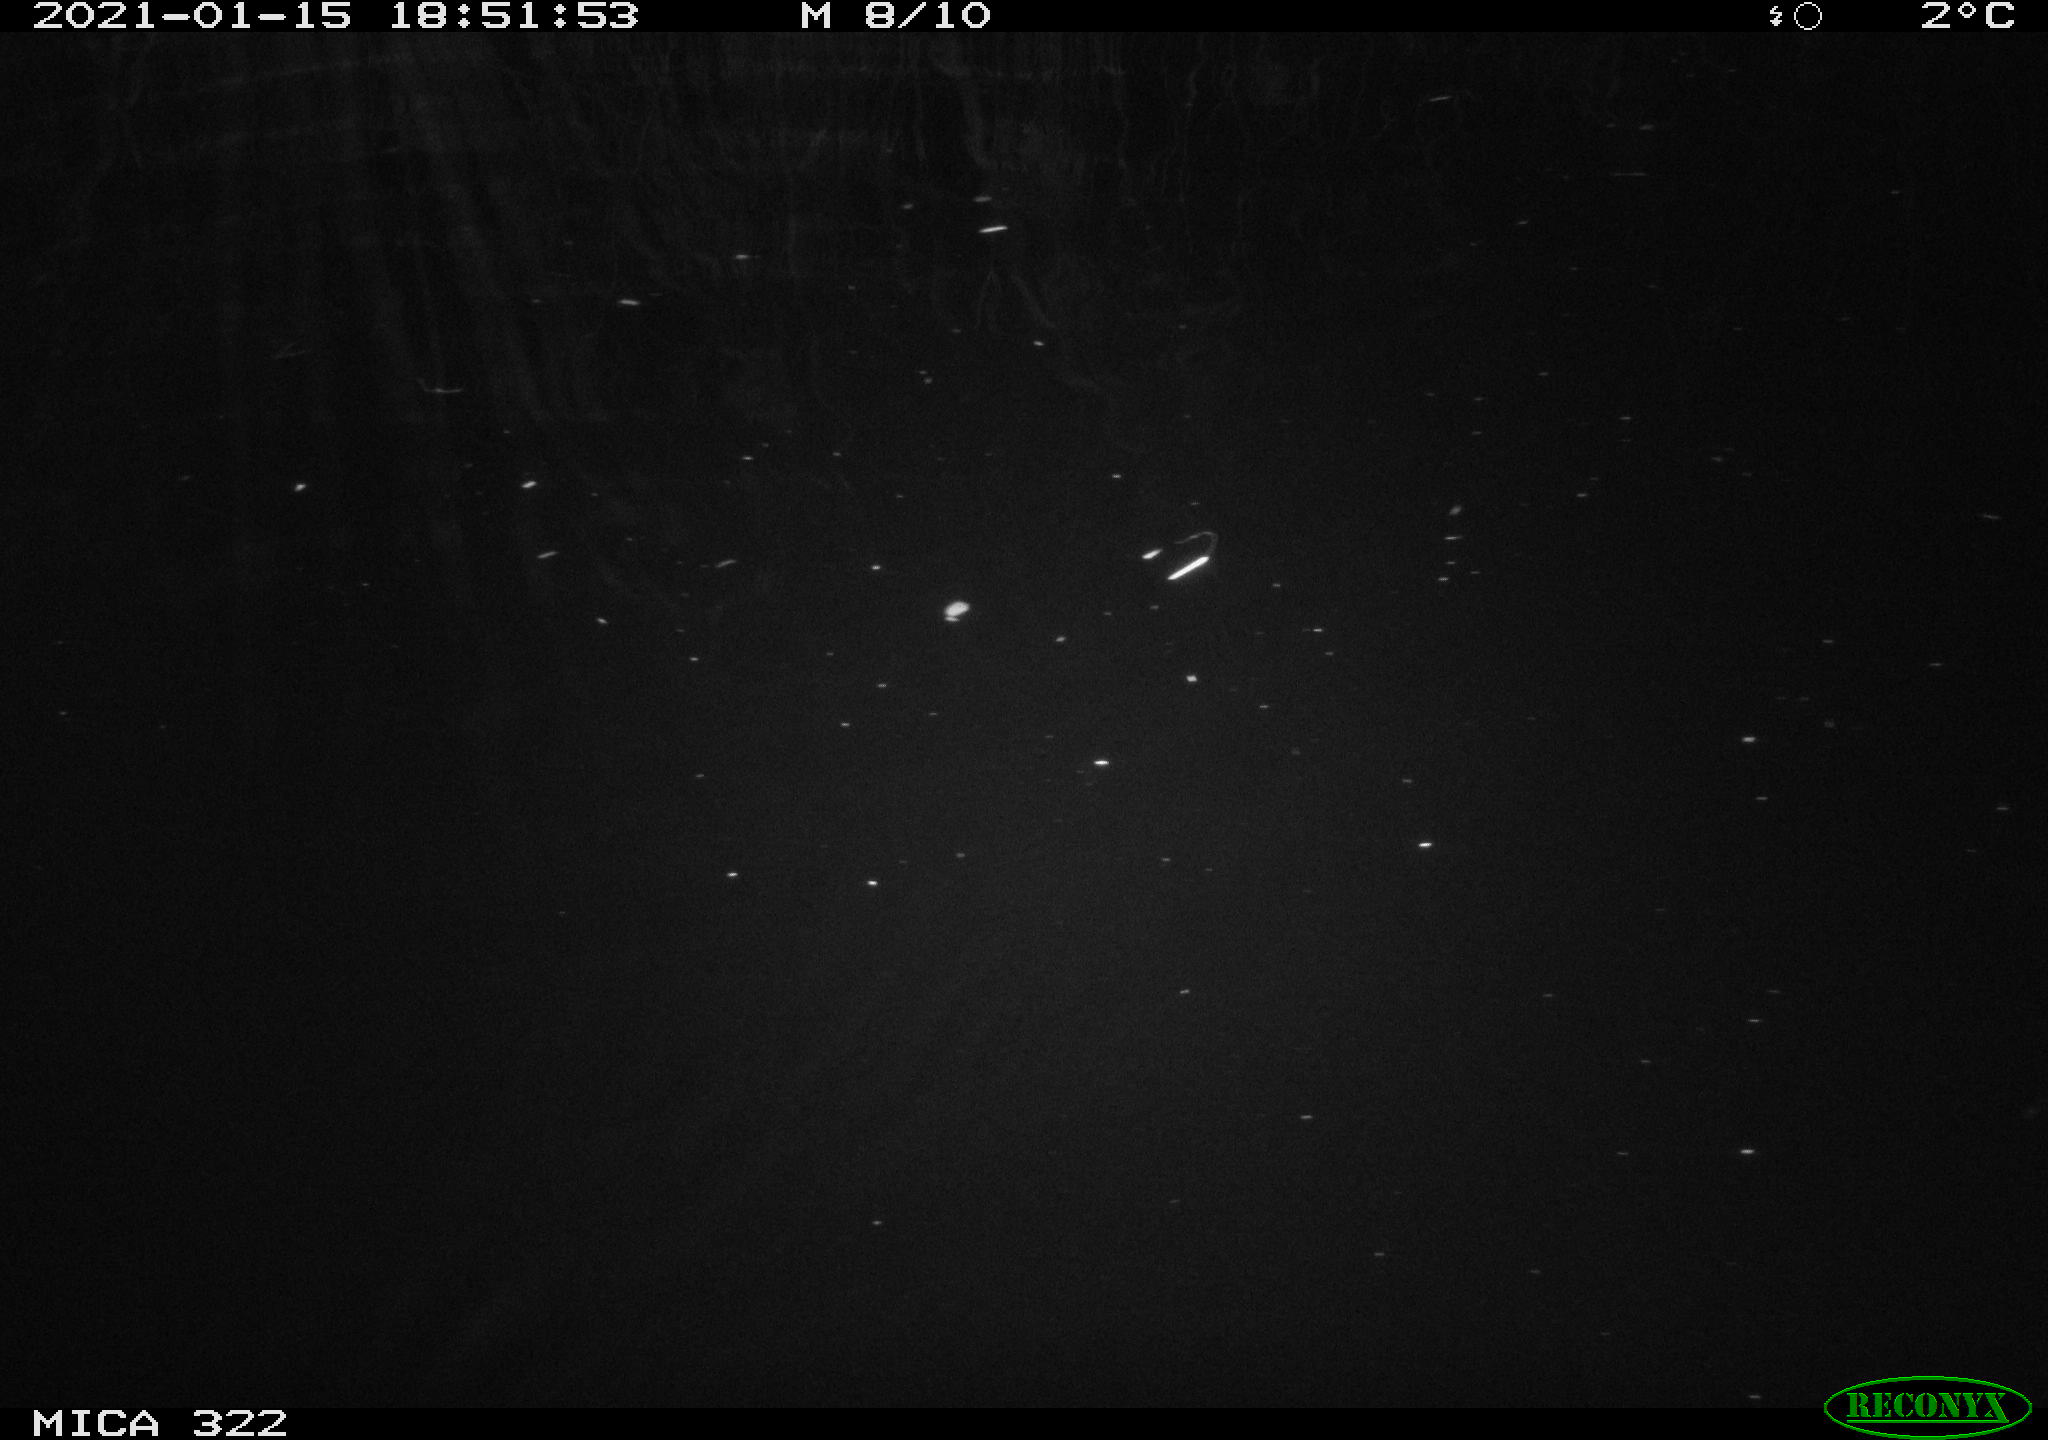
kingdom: Animalia
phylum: Chordata
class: Mammalia
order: Rodentia
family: Muridae
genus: Rattus
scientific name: Rattus norvegicus
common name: Brown rat
